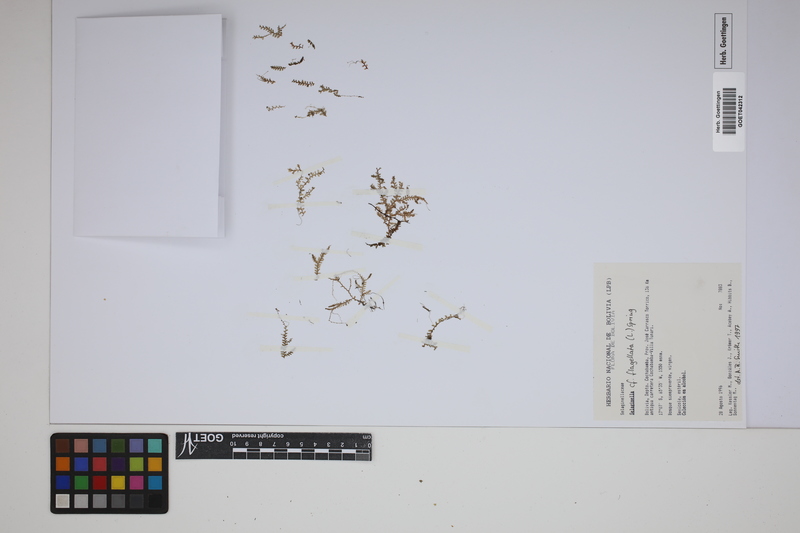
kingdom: Plantae
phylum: Tracheophyta
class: Lycopodiopsida
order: Selaginellales
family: Selaginellaceae
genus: Selaginella
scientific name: Selaginella flagellata
